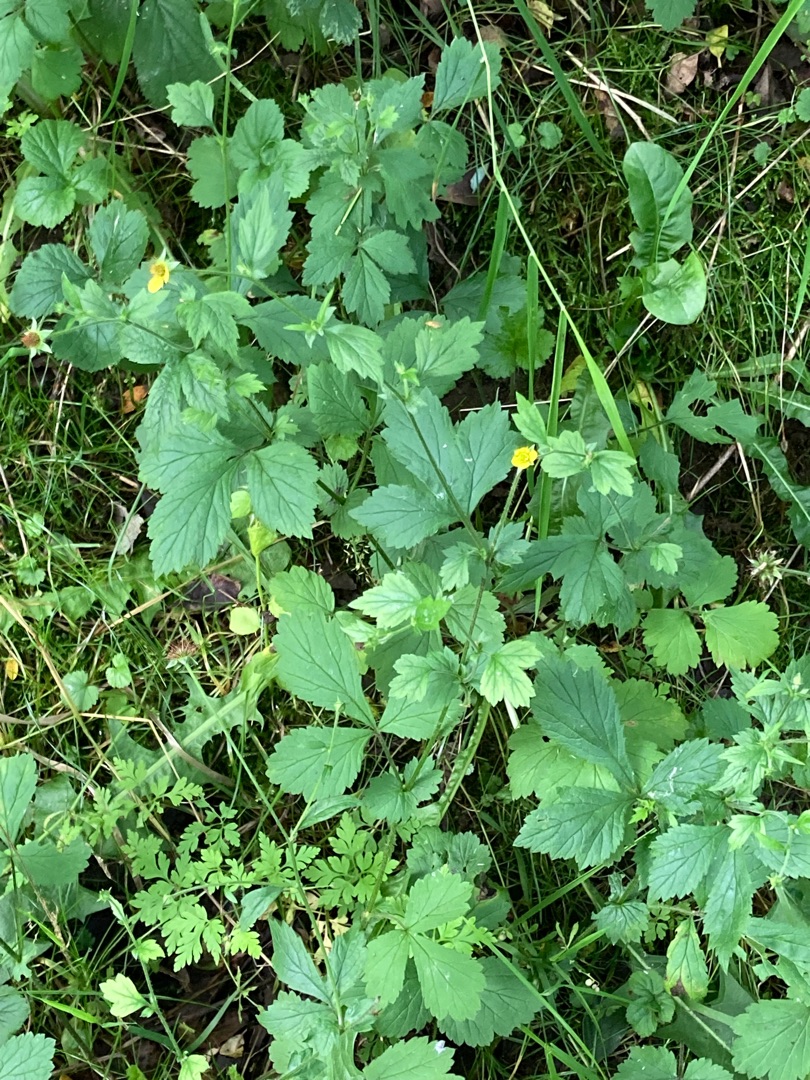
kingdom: Plantae
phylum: Tracheophyta
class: Magnoliopsida
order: Rosales
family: Rosaceae
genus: Geum
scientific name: Geum urbanum
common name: Feber-nellikerod
